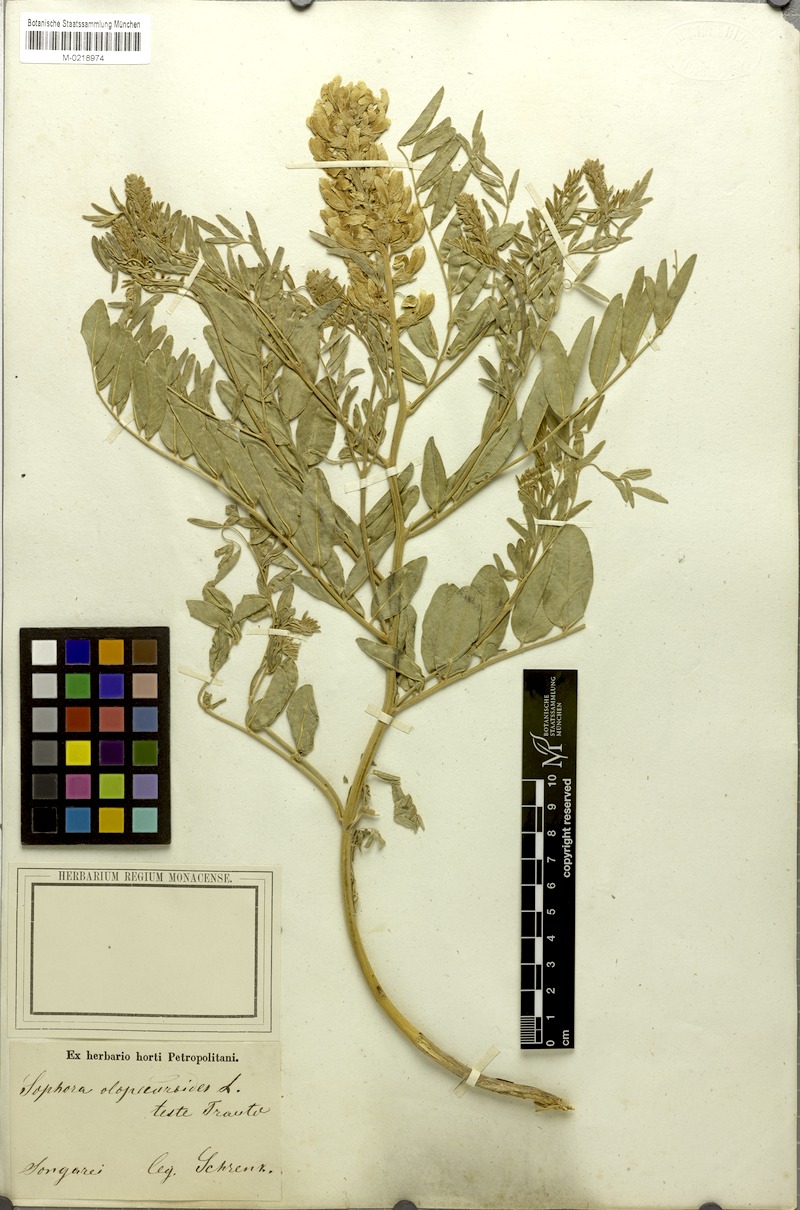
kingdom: Plantae
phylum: Tracheophyta
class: Magnoliopsida
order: Fabales
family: Fabaceae
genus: Sophora
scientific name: Sophora alopecuroides
